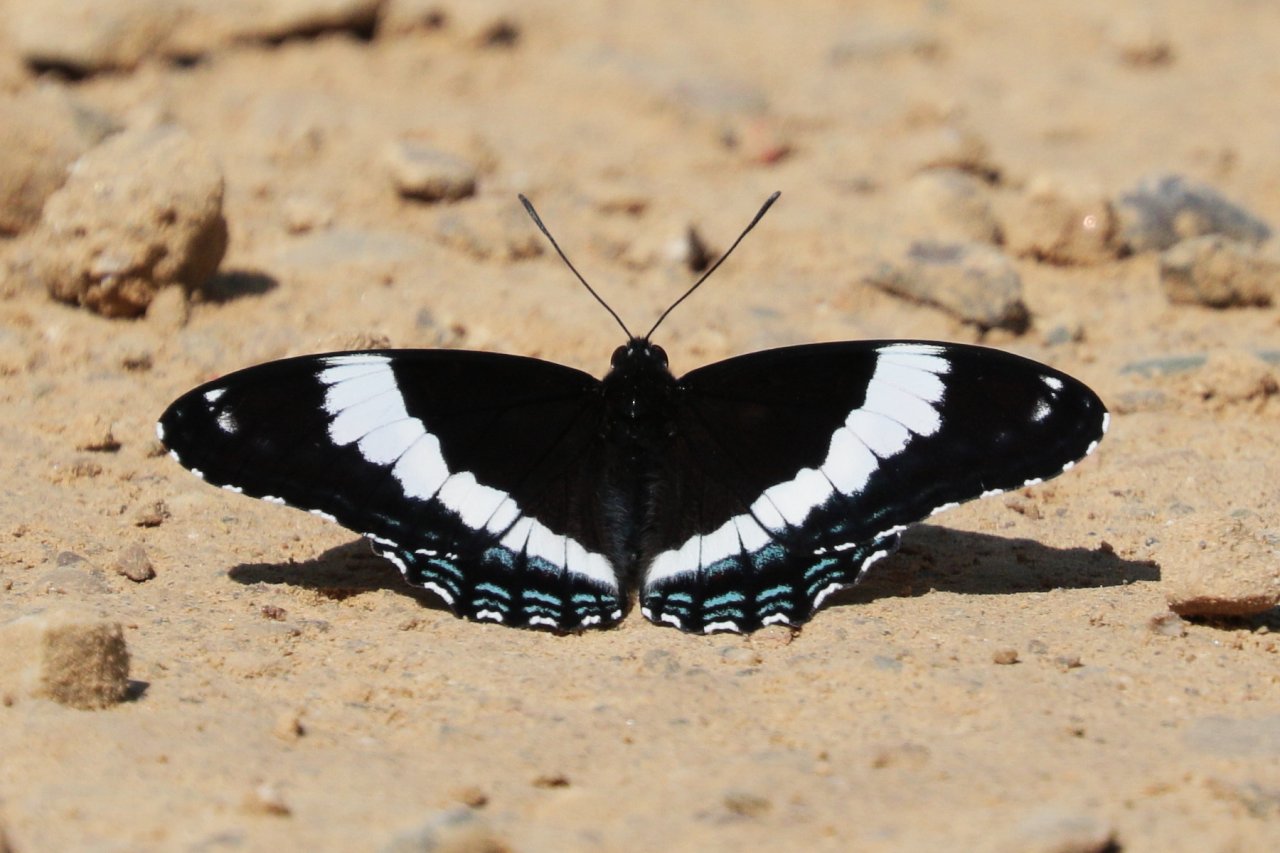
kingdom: Animalia
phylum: Arthropoda
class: Insecta
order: Lepidoptera
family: Nymphalidae
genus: Limenitis
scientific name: Limenitis arthemis
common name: Red-spotted Admiral
